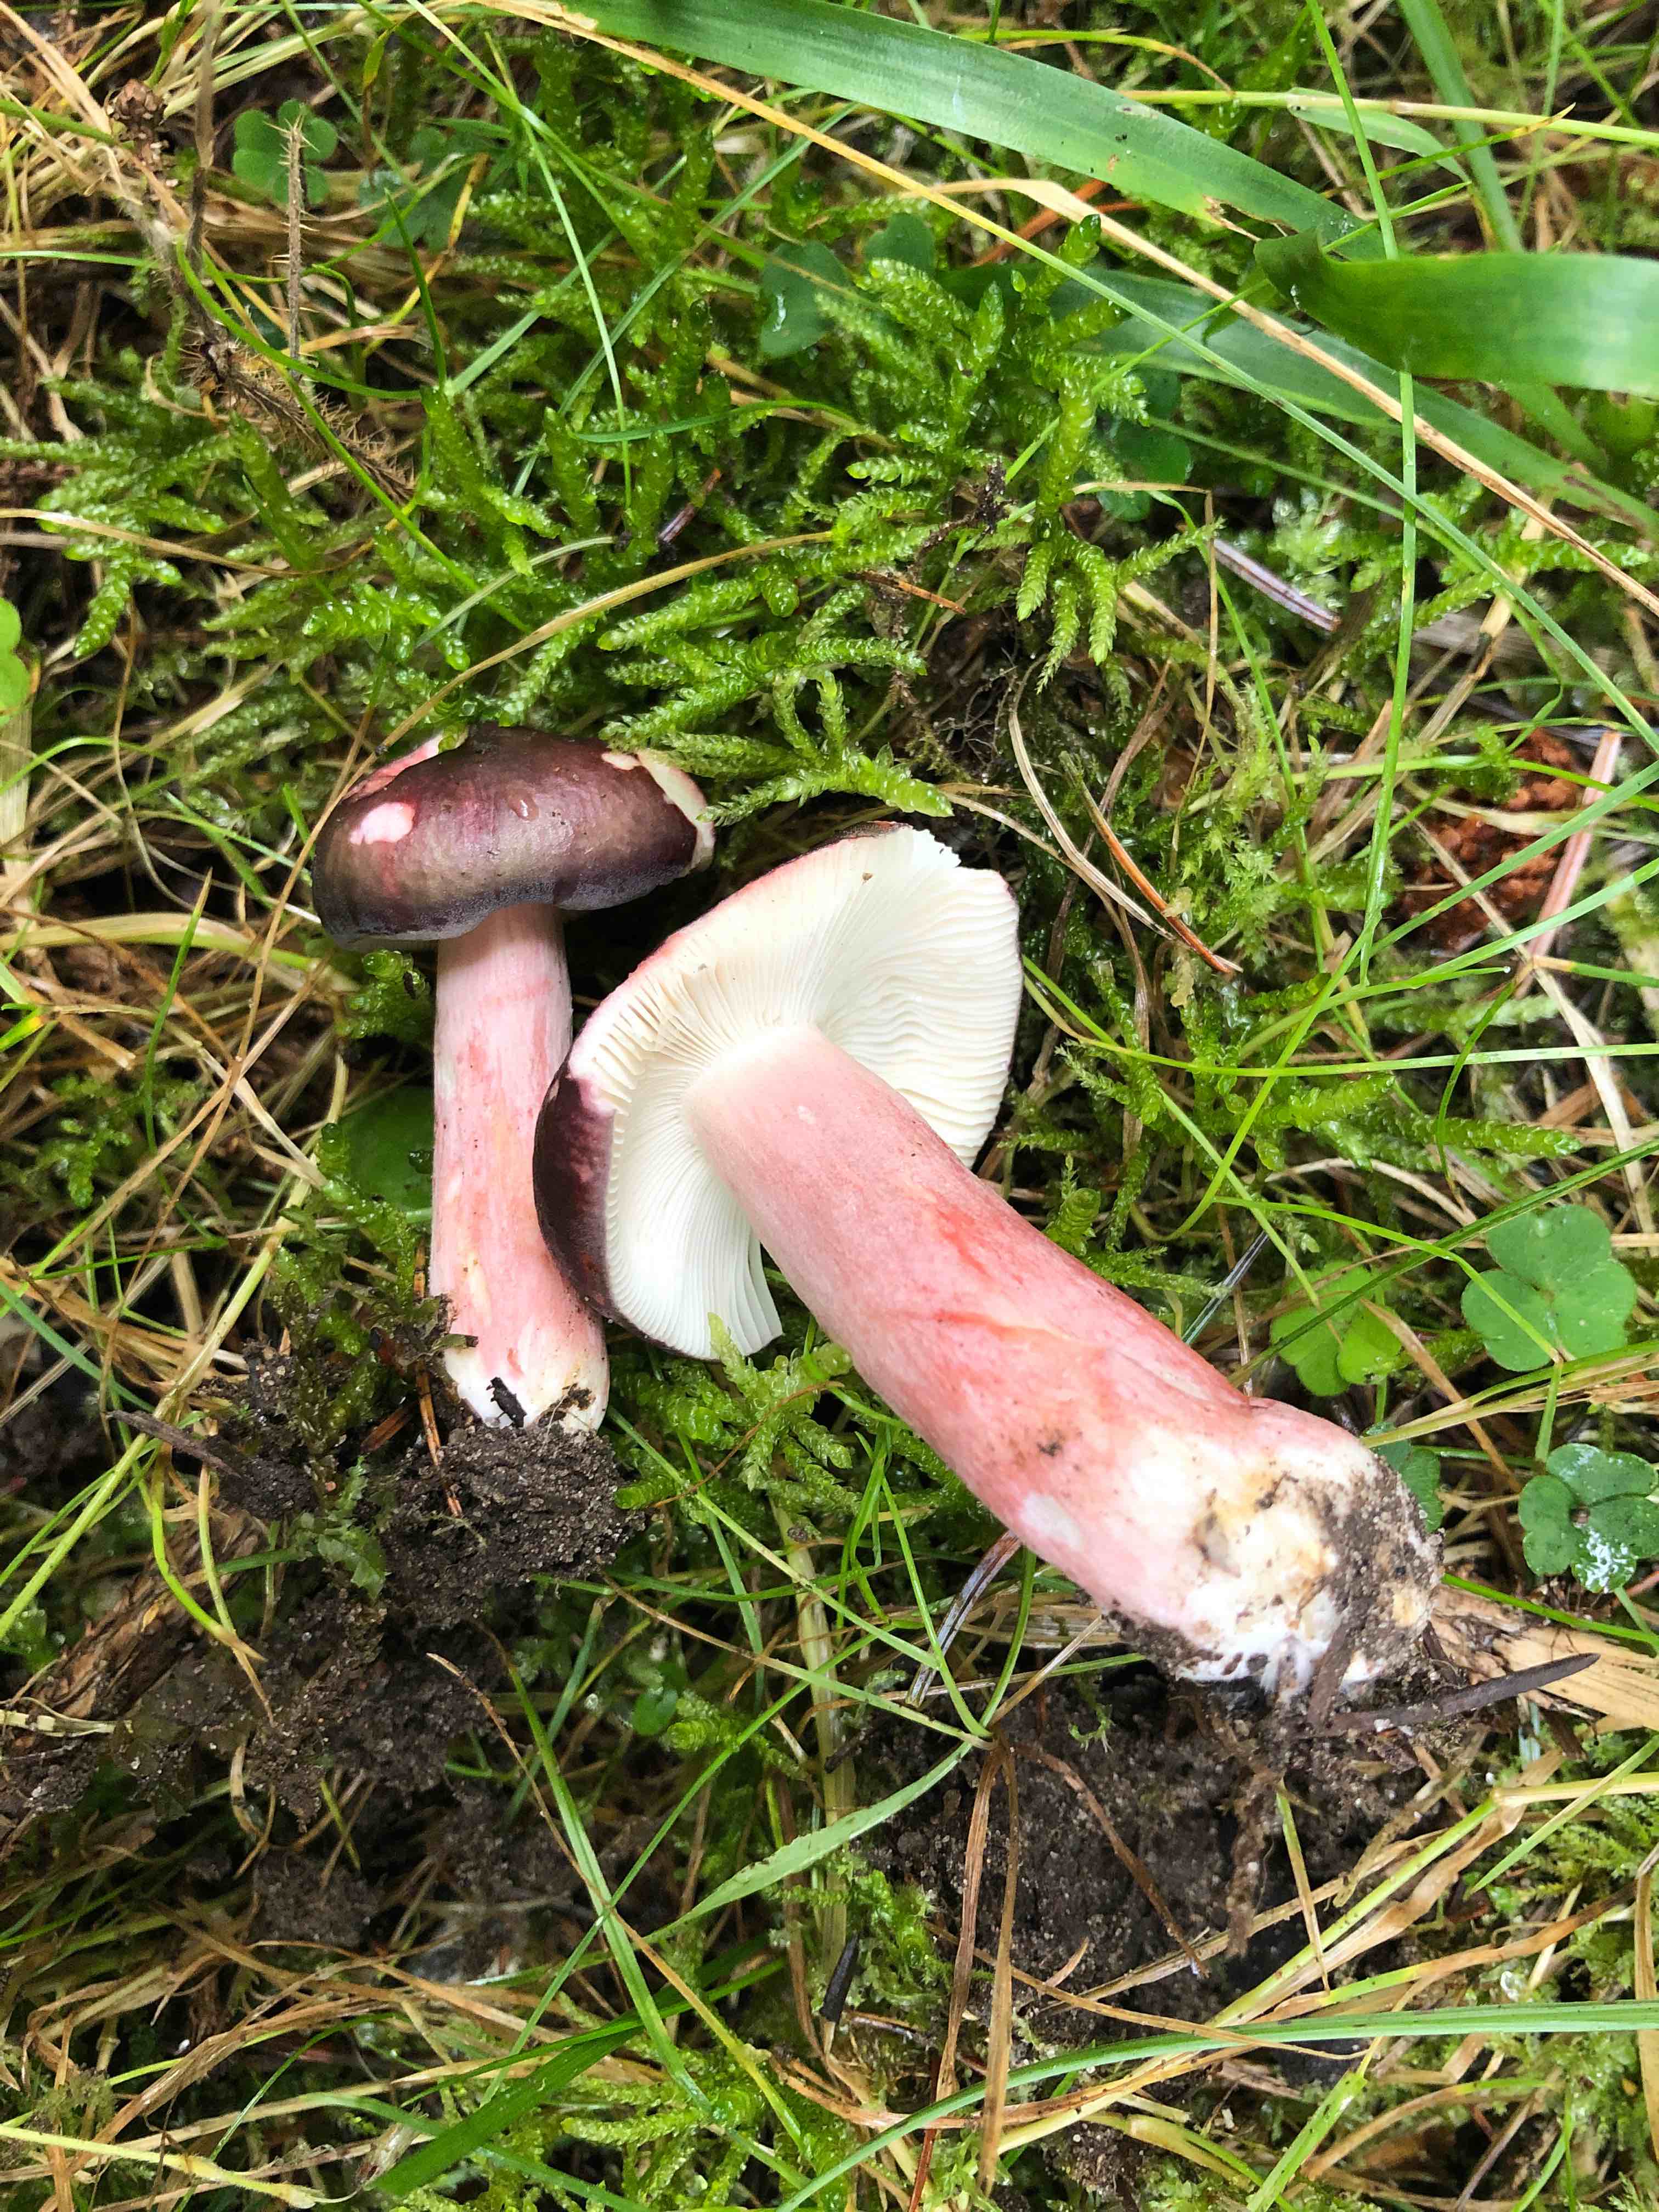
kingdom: Fungi
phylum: Basidiomycota
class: Agaricomycetes
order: Russulales
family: Russulaceae
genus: Russula
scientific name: Russula queletii
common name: Quélets skørhat
